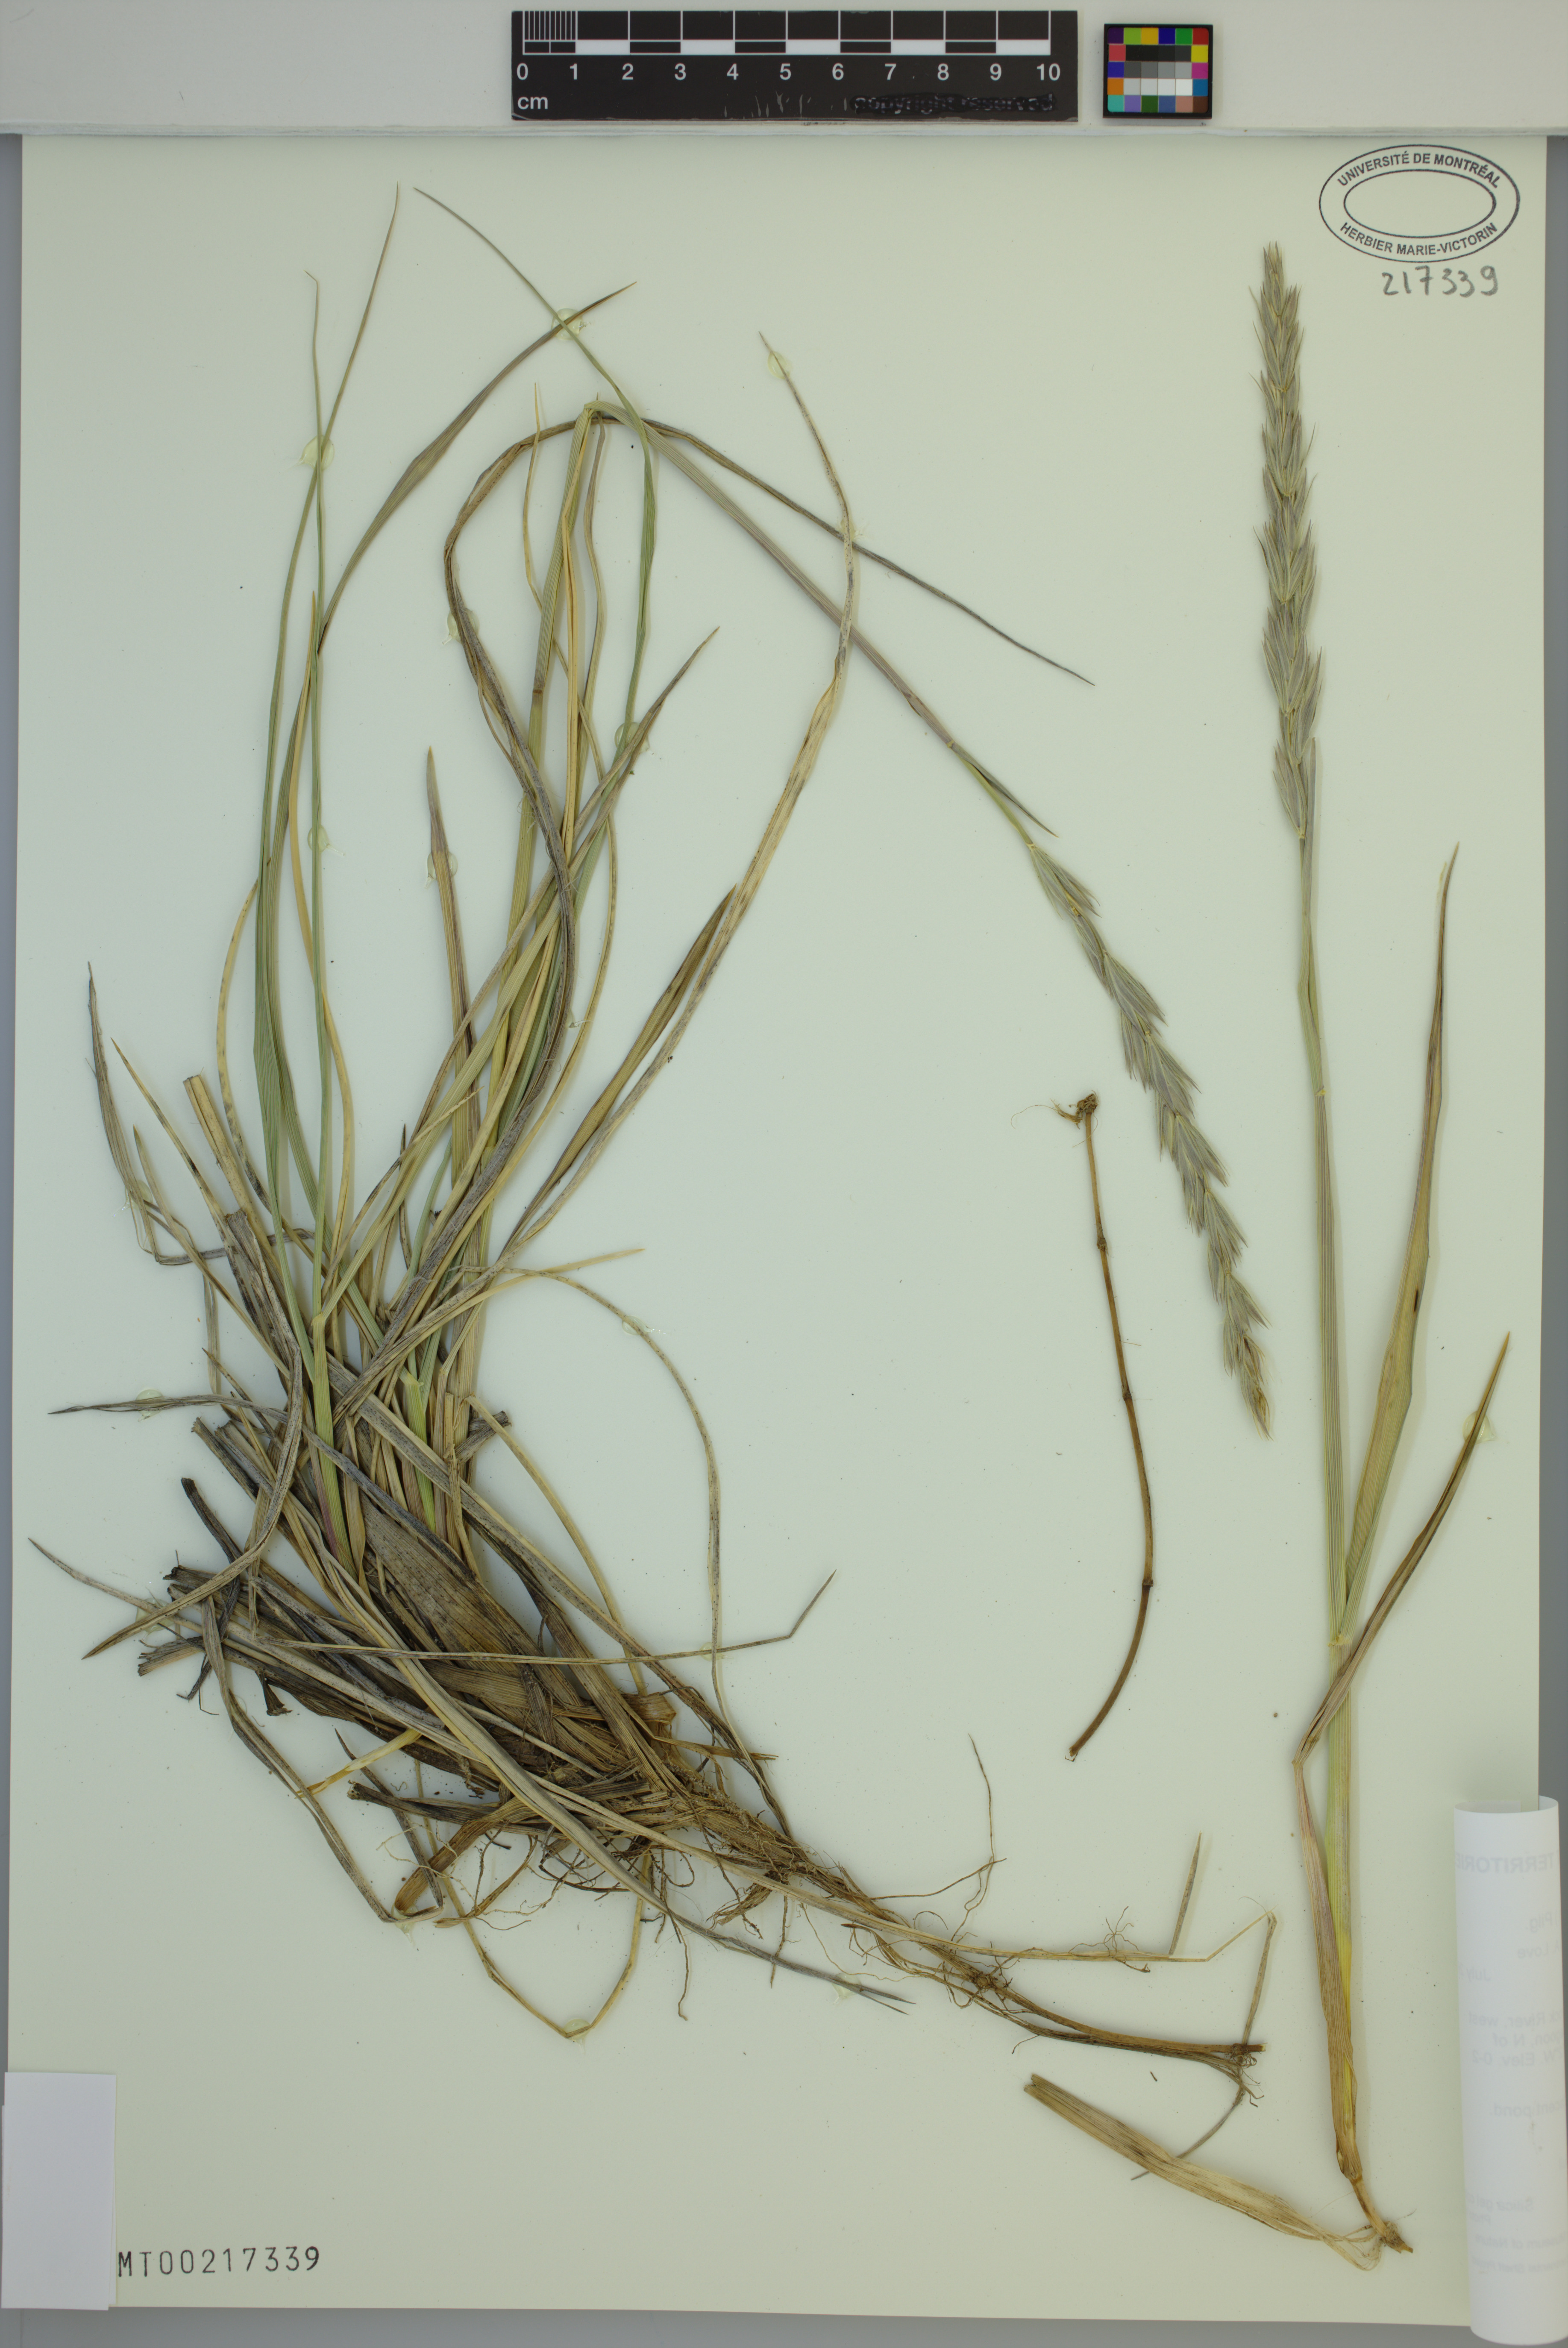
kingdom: Plantae
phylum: Tracheophyta
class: Liliopsida
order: Poales
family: Poaceae
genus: Leymus
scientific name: Leymus villosissimus
